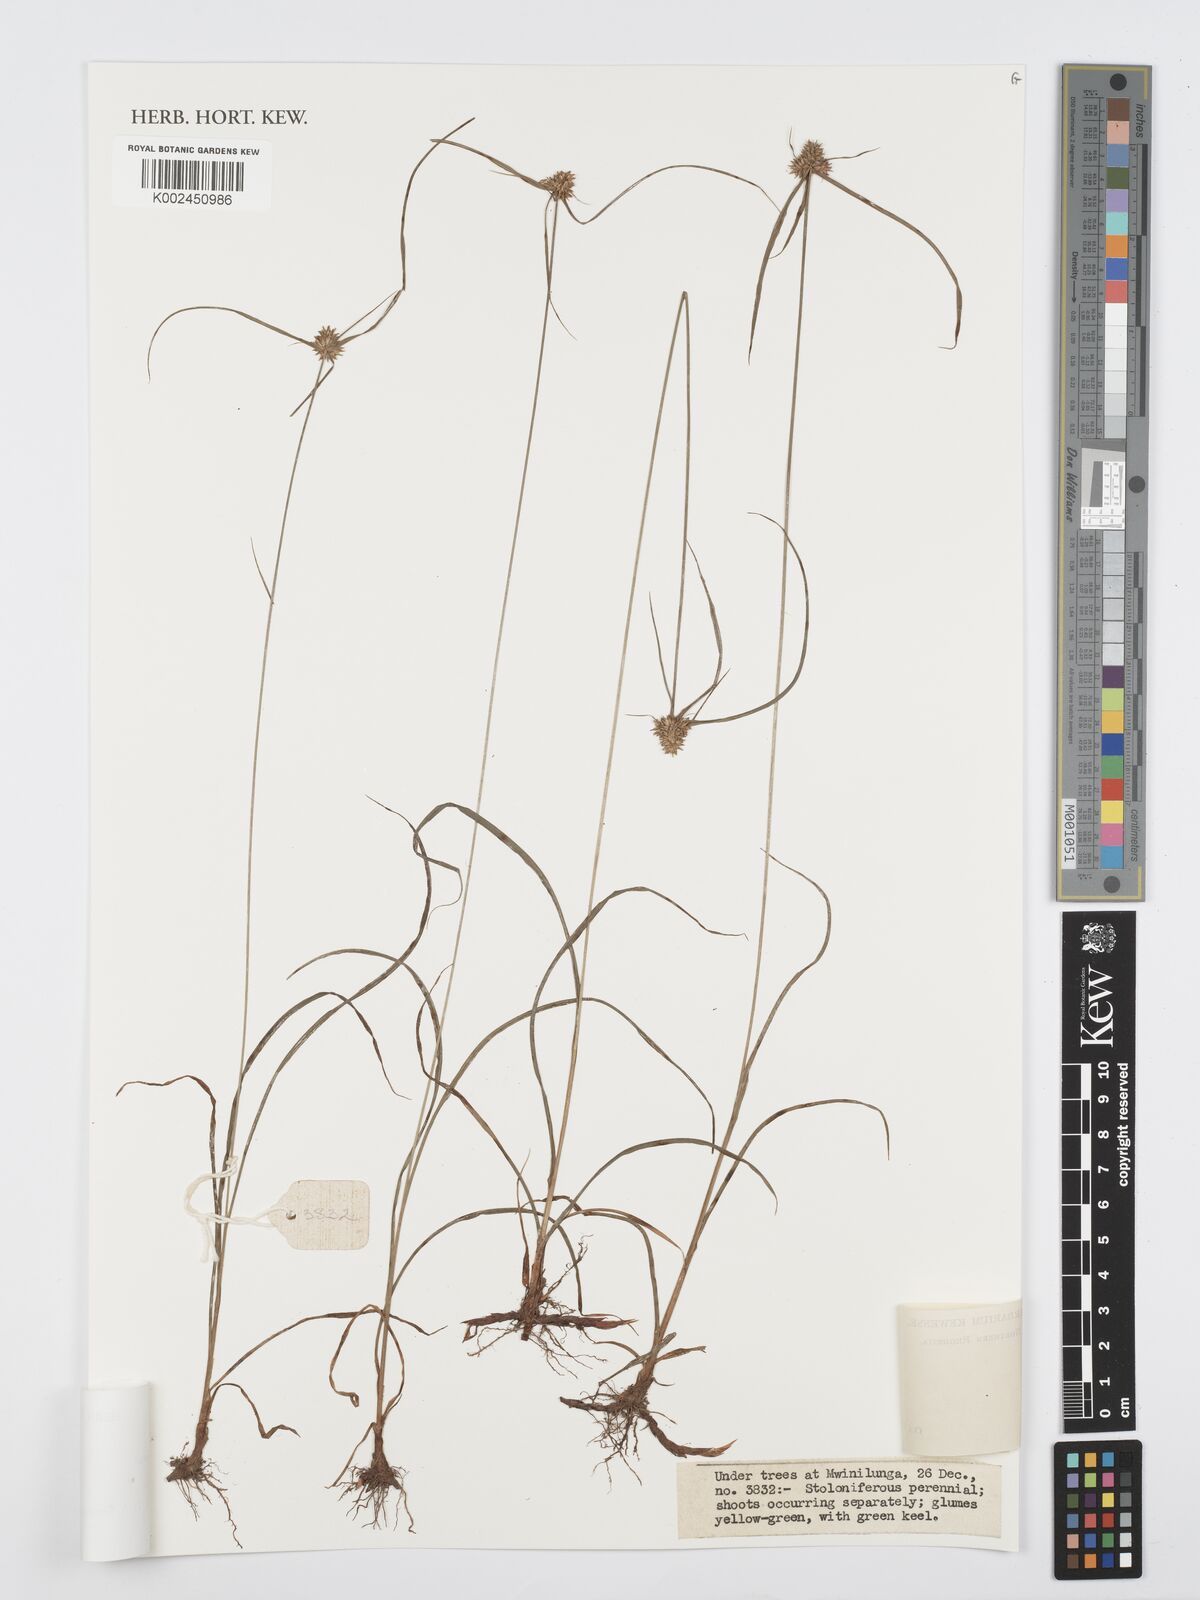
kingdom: Plantae
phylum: Tracheophyta
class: Liliopsida
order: Poales
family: Cyperaceae
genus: Cyperus
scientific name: Cyperus
